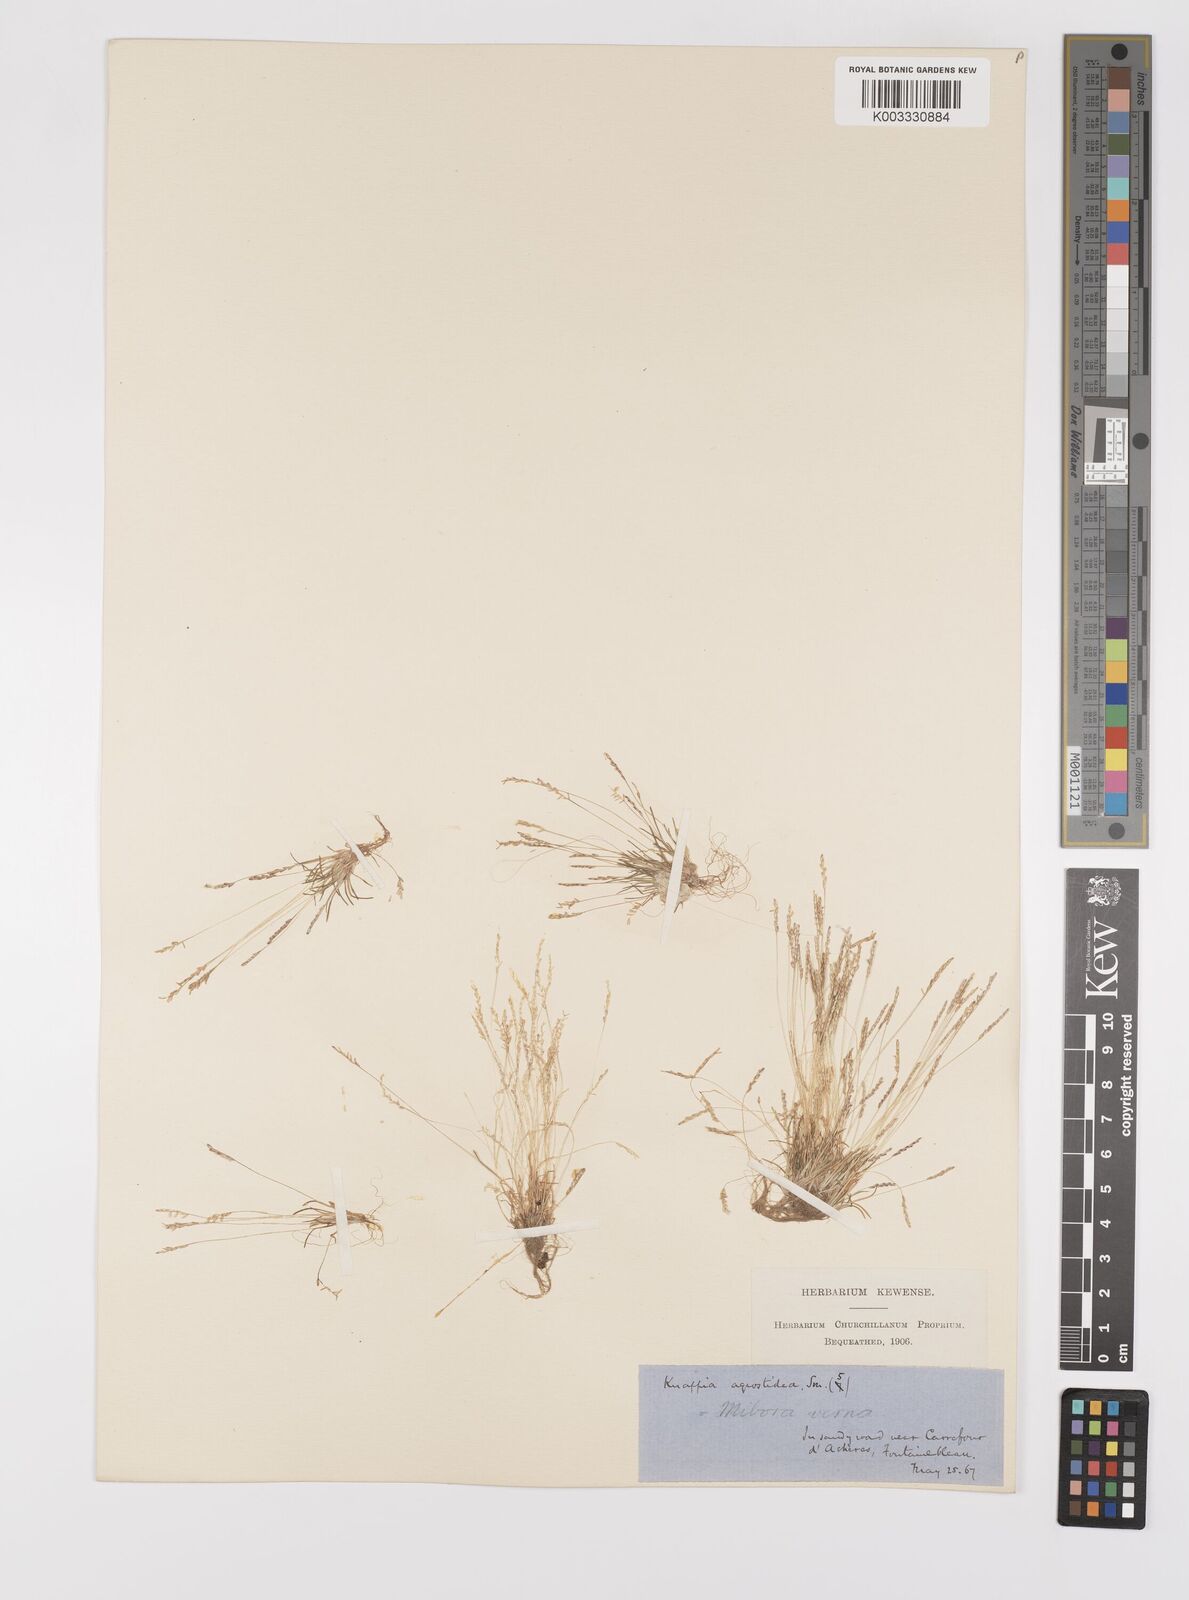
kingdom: Plantae
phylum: Tracheophyta
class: Liliopsida
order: Poales
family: Poaceae
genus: Mibora
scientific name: Mibora minima
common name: Early sand-grass
